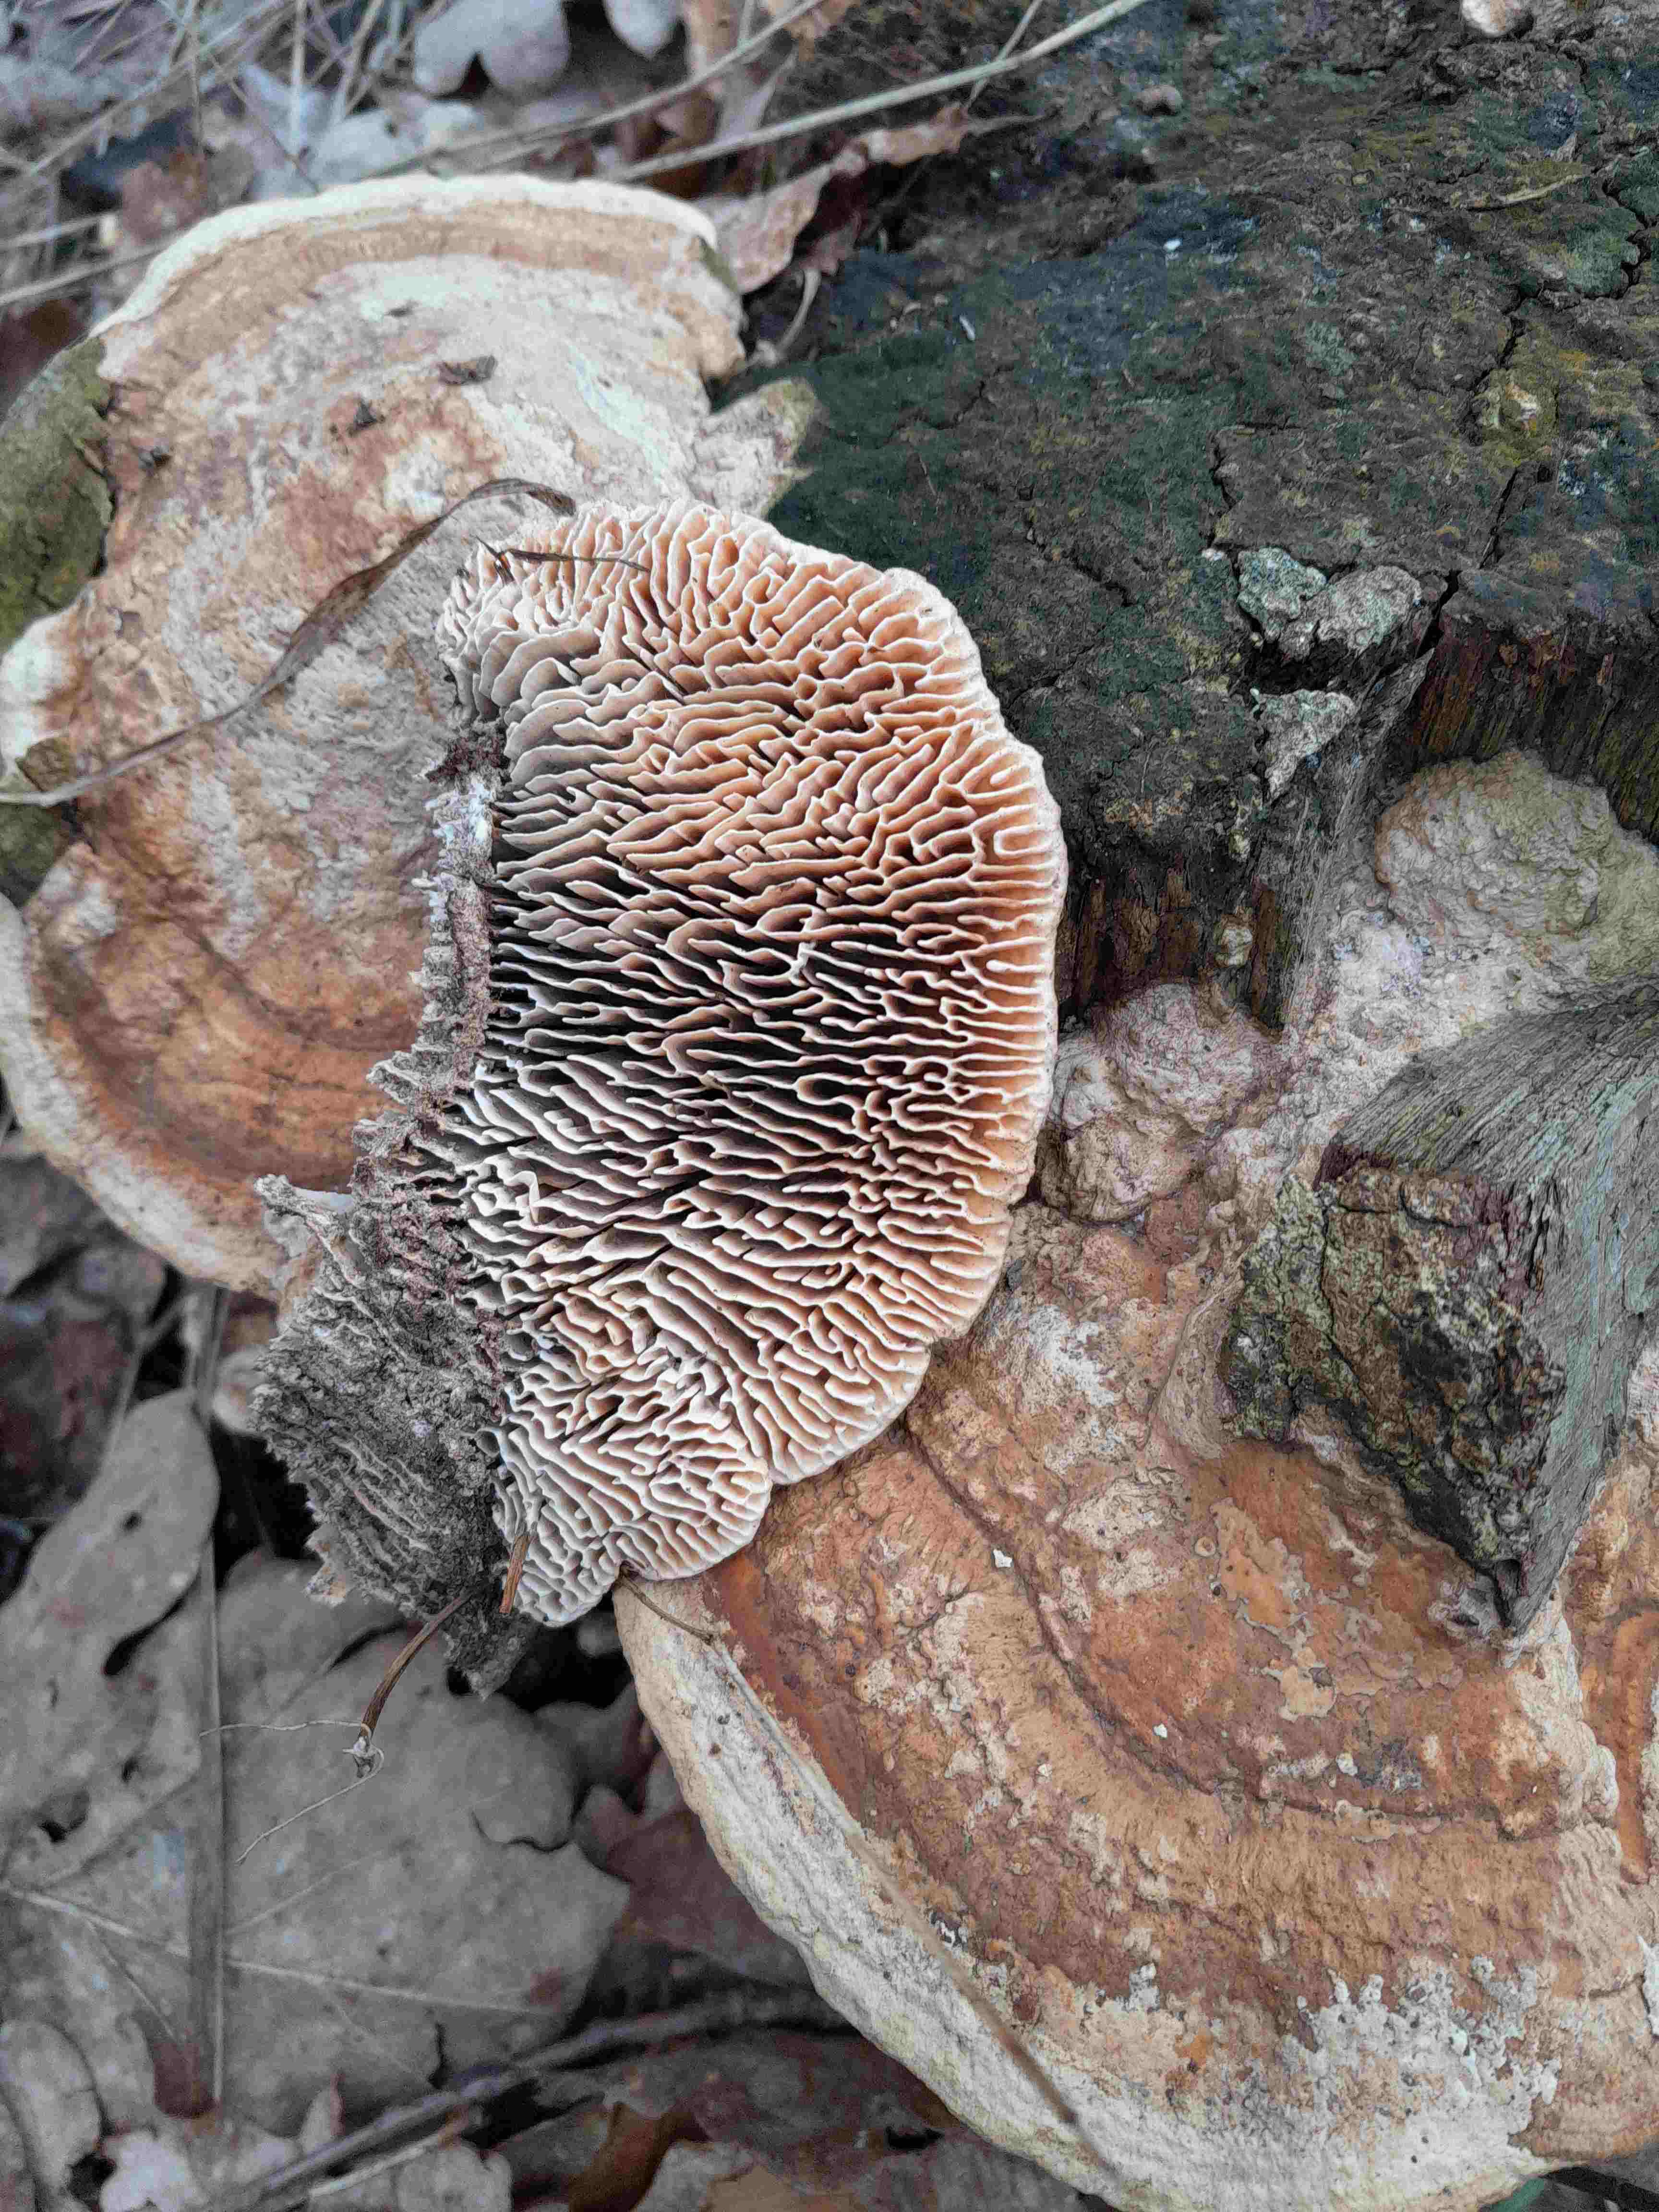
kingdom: Fungi
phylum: Basidiomycota
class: Agaricomycetes
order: Polyporales
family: Fomitopsidaceae
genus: Daedalea
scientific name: Daedalea quercina
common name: ege-labyrintsvamp
